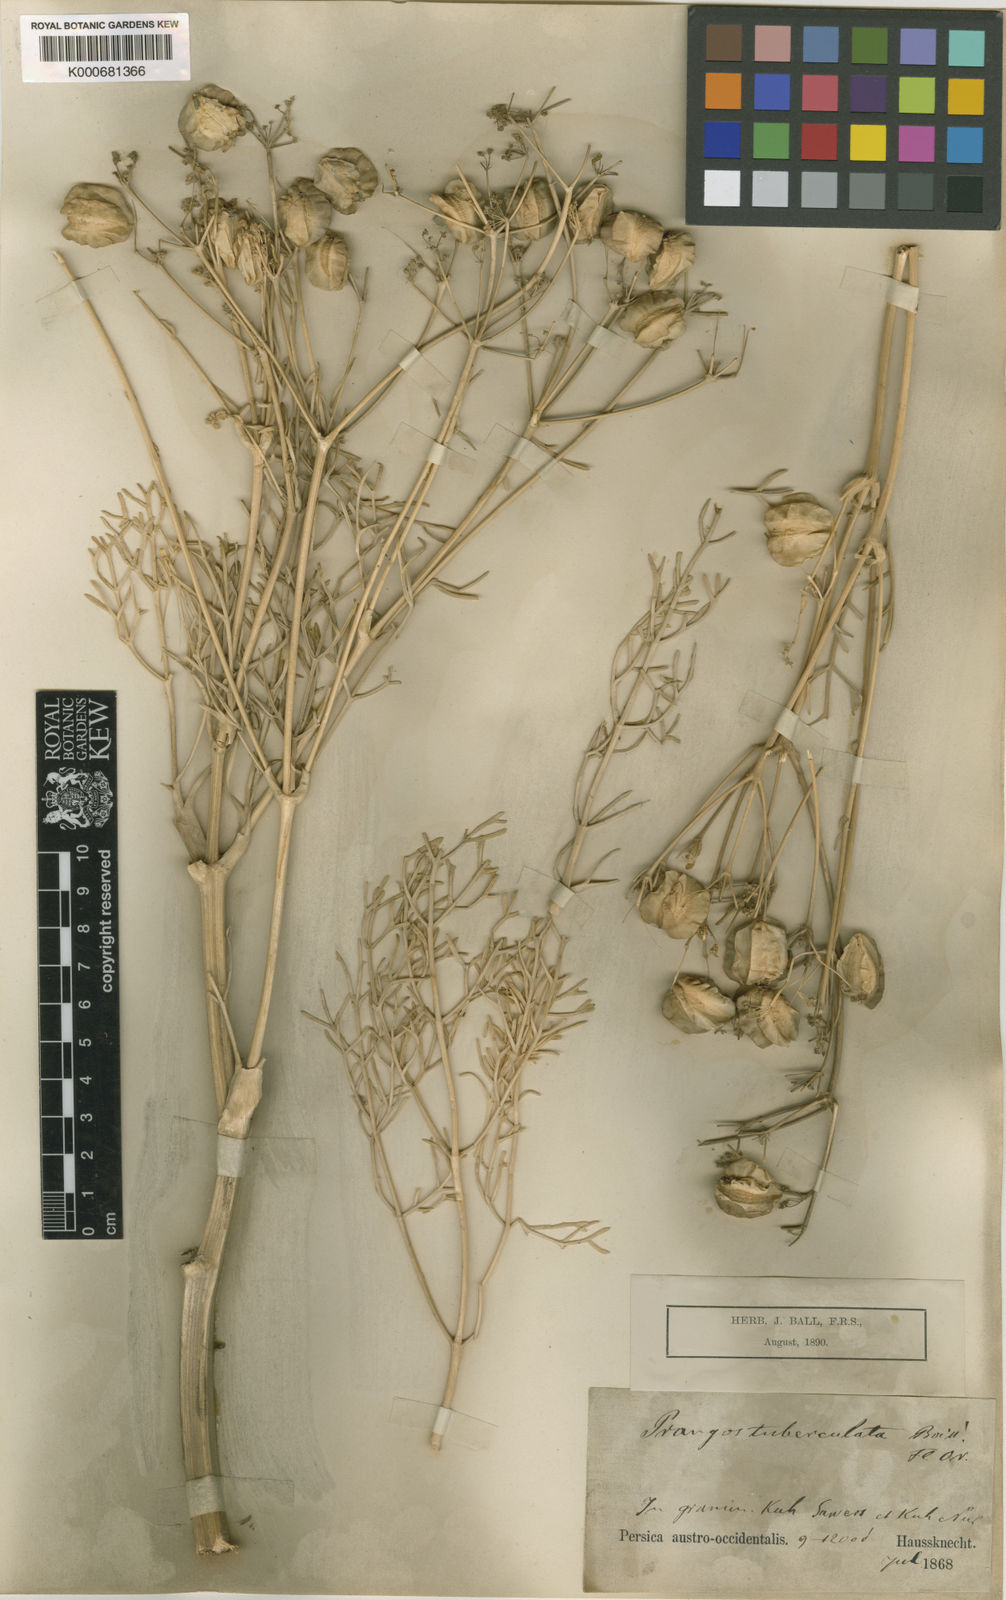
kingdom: Plantae
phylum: Tracheophyta
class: Magnoliopsida
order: Apiales
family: Apiaceae
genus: Prangos
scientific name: Prangos tuberculata
